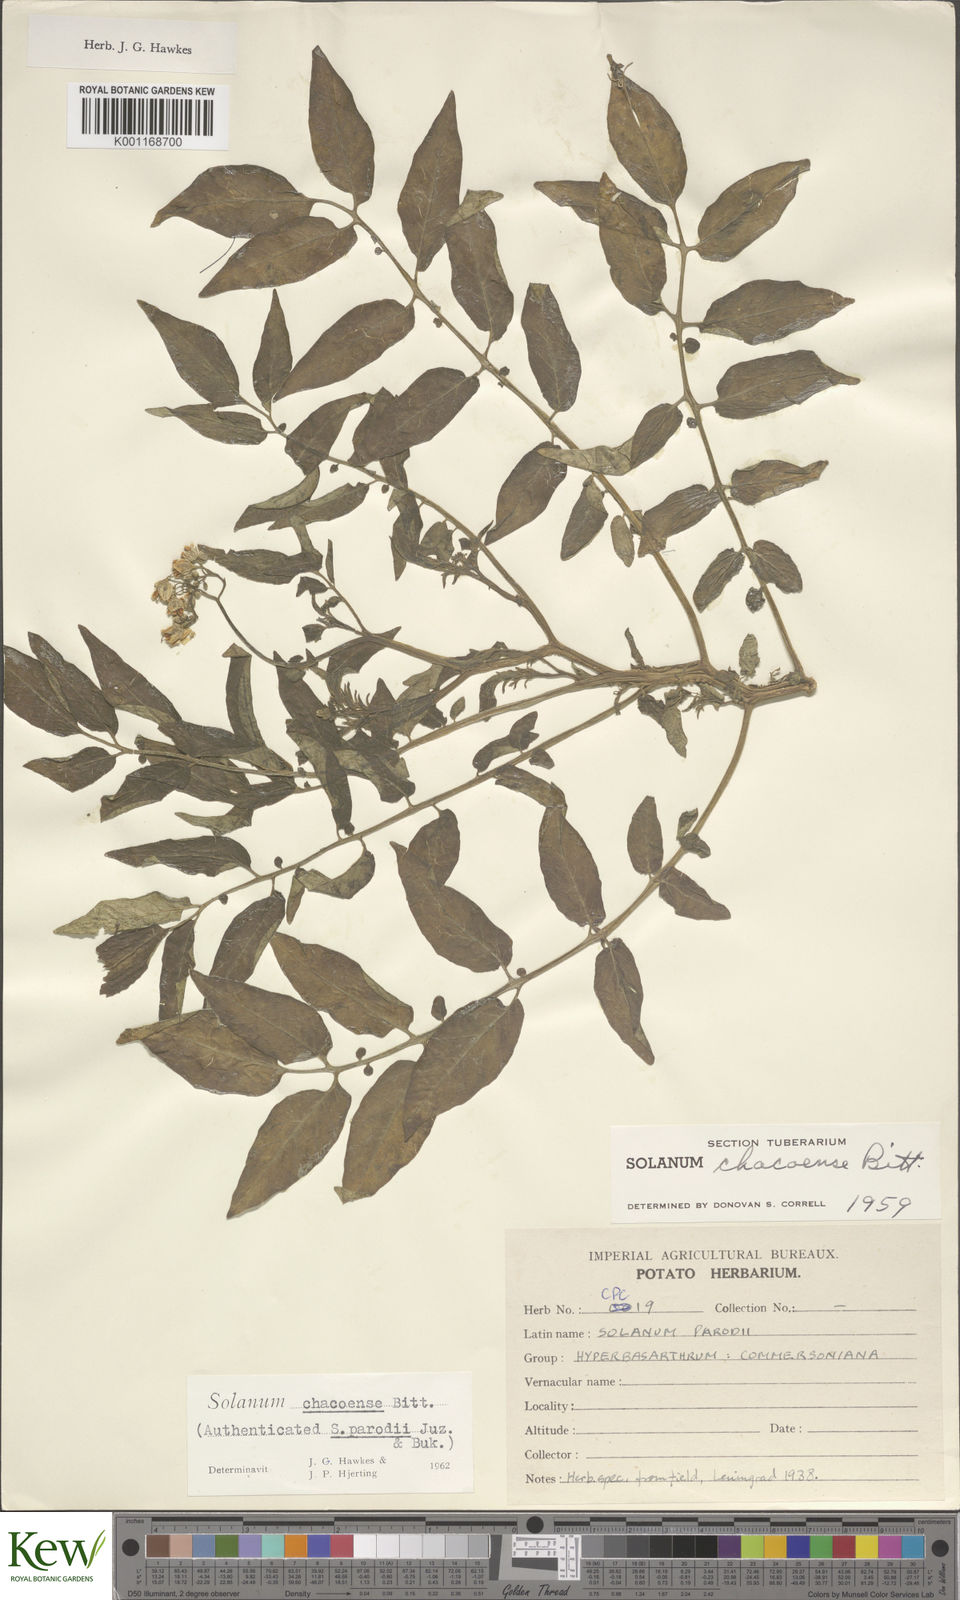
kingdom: Plantae
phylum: Tracheophyta
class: Magnoliopsida
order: Solanales
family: Solanaceae
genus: Solanum
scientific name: Solanum chacoense
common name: Chaco potato
